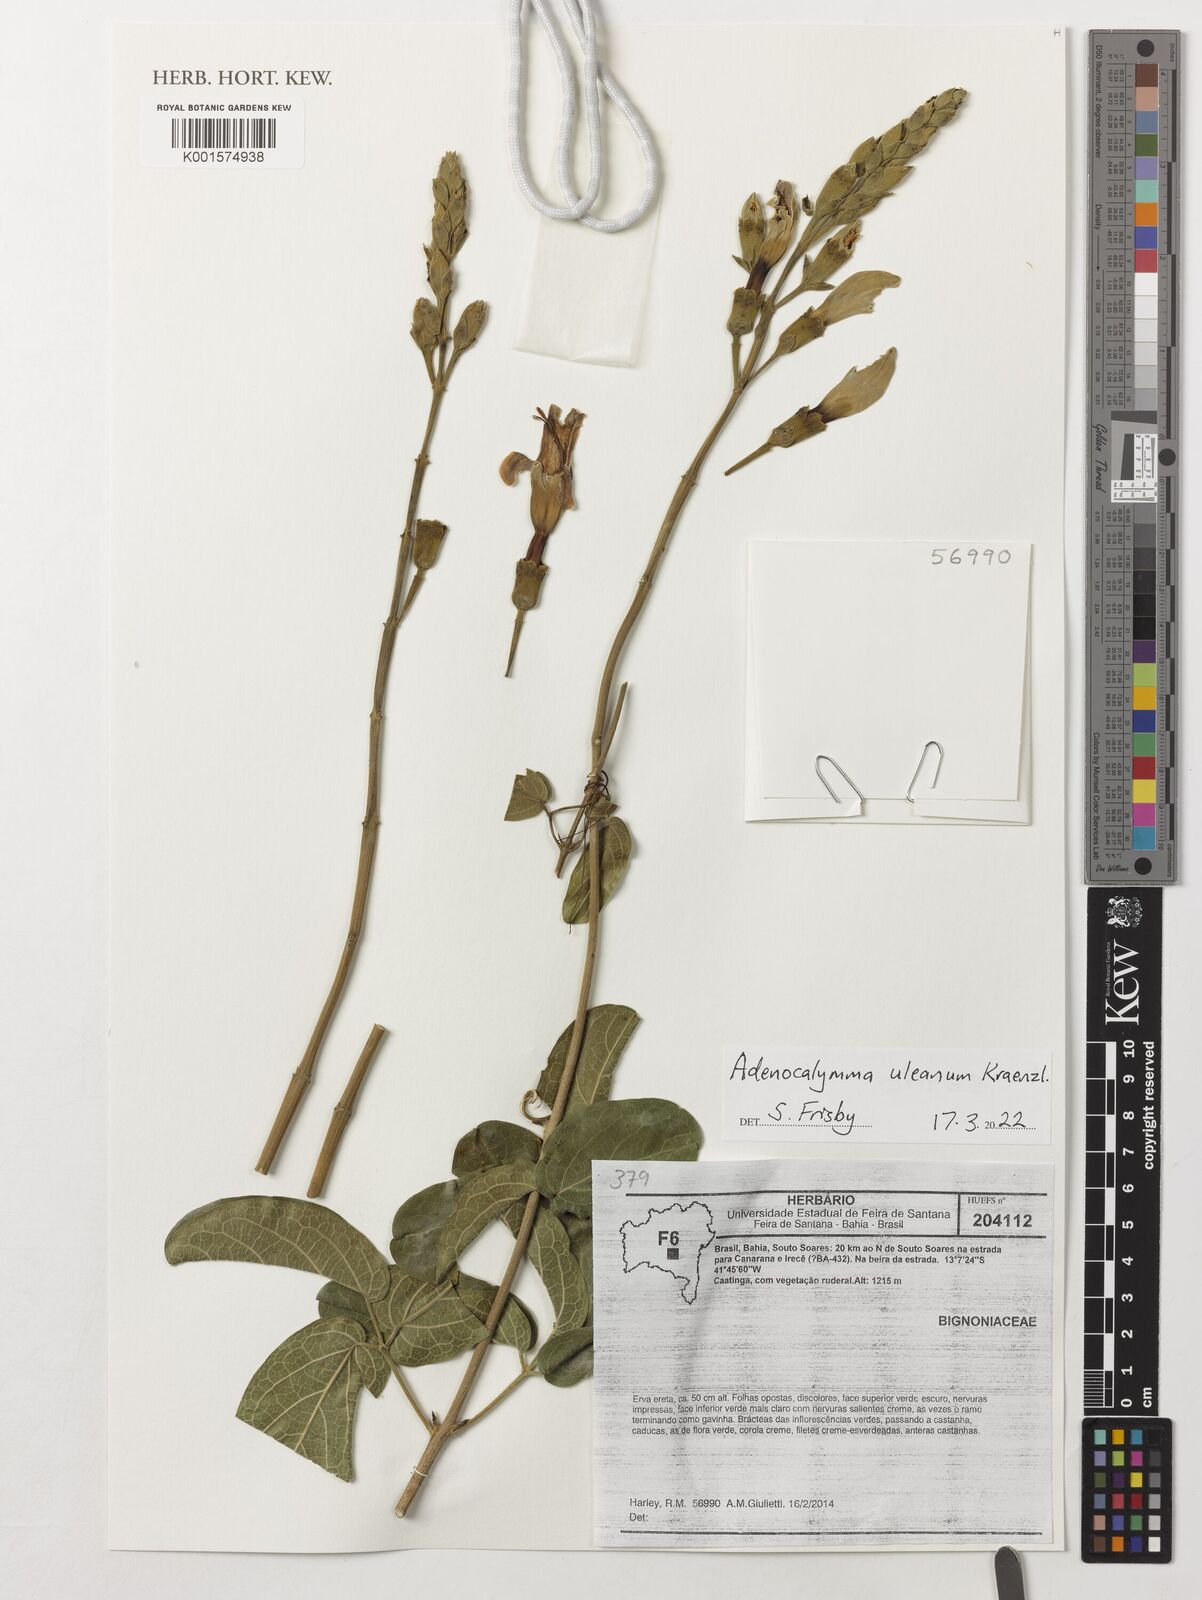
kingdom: Plantae
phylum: Tracheophyta
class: Magnoliopsida
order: Lamiales
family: Bignoniaceae
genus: Adenocalymma
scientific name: Adenocalymma uleanum
